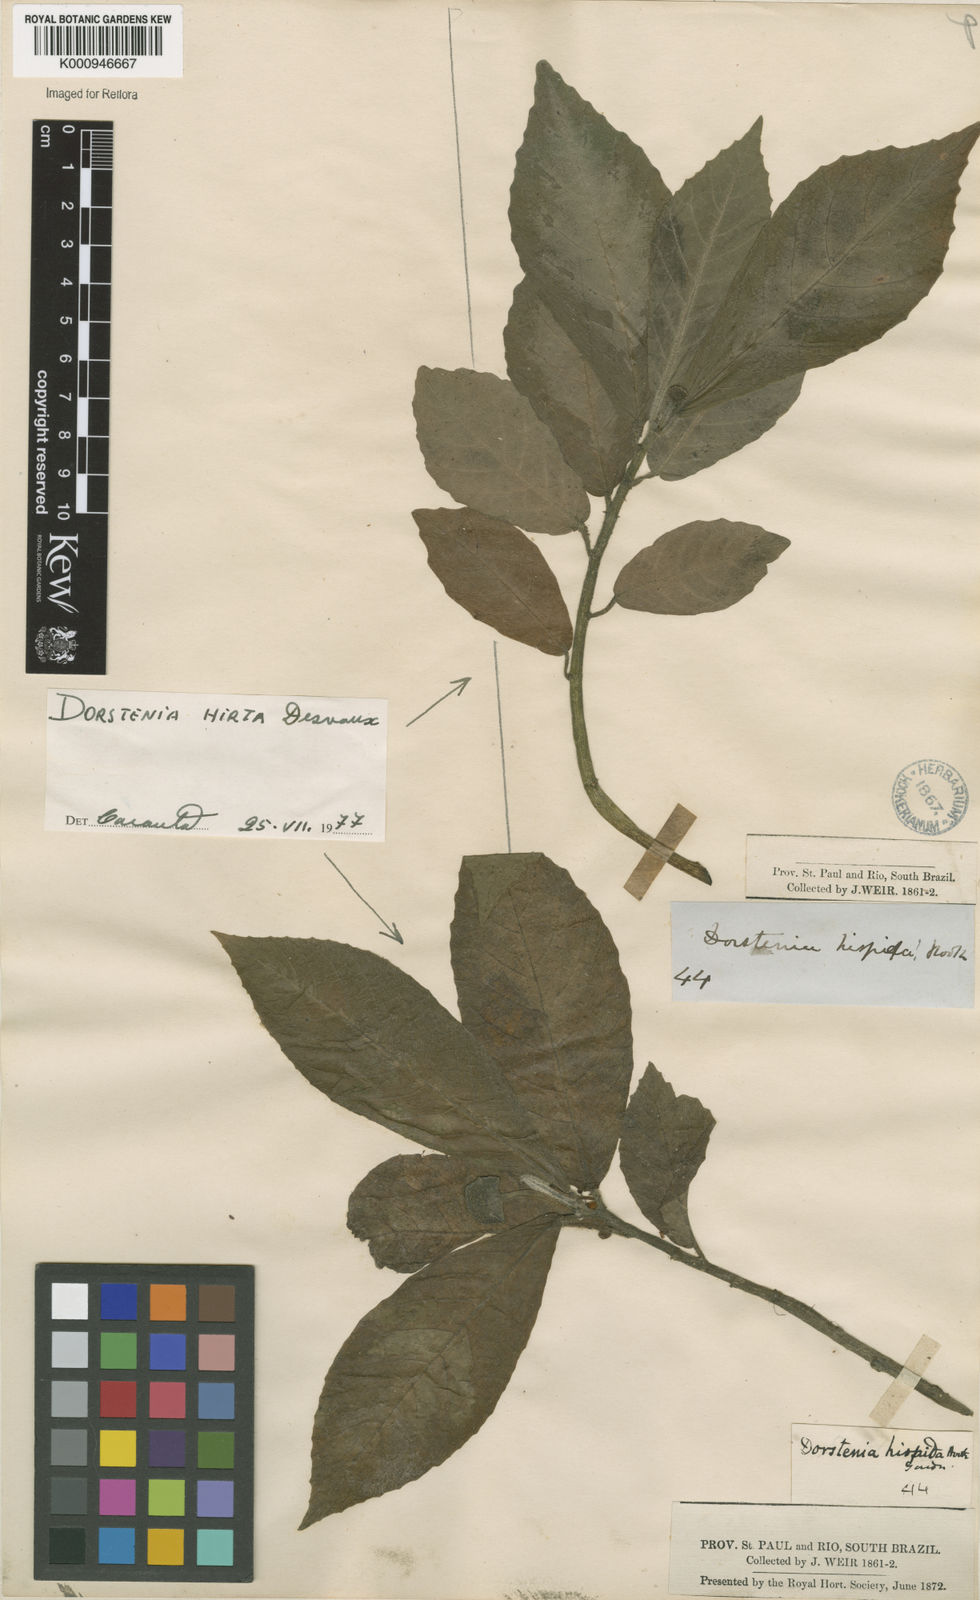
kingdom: Plantae
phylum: Tracheophyta
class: Magnoliopsida
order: Rosales
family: Moraceae
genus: Dorstenia
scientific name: Dorstenia hirta
